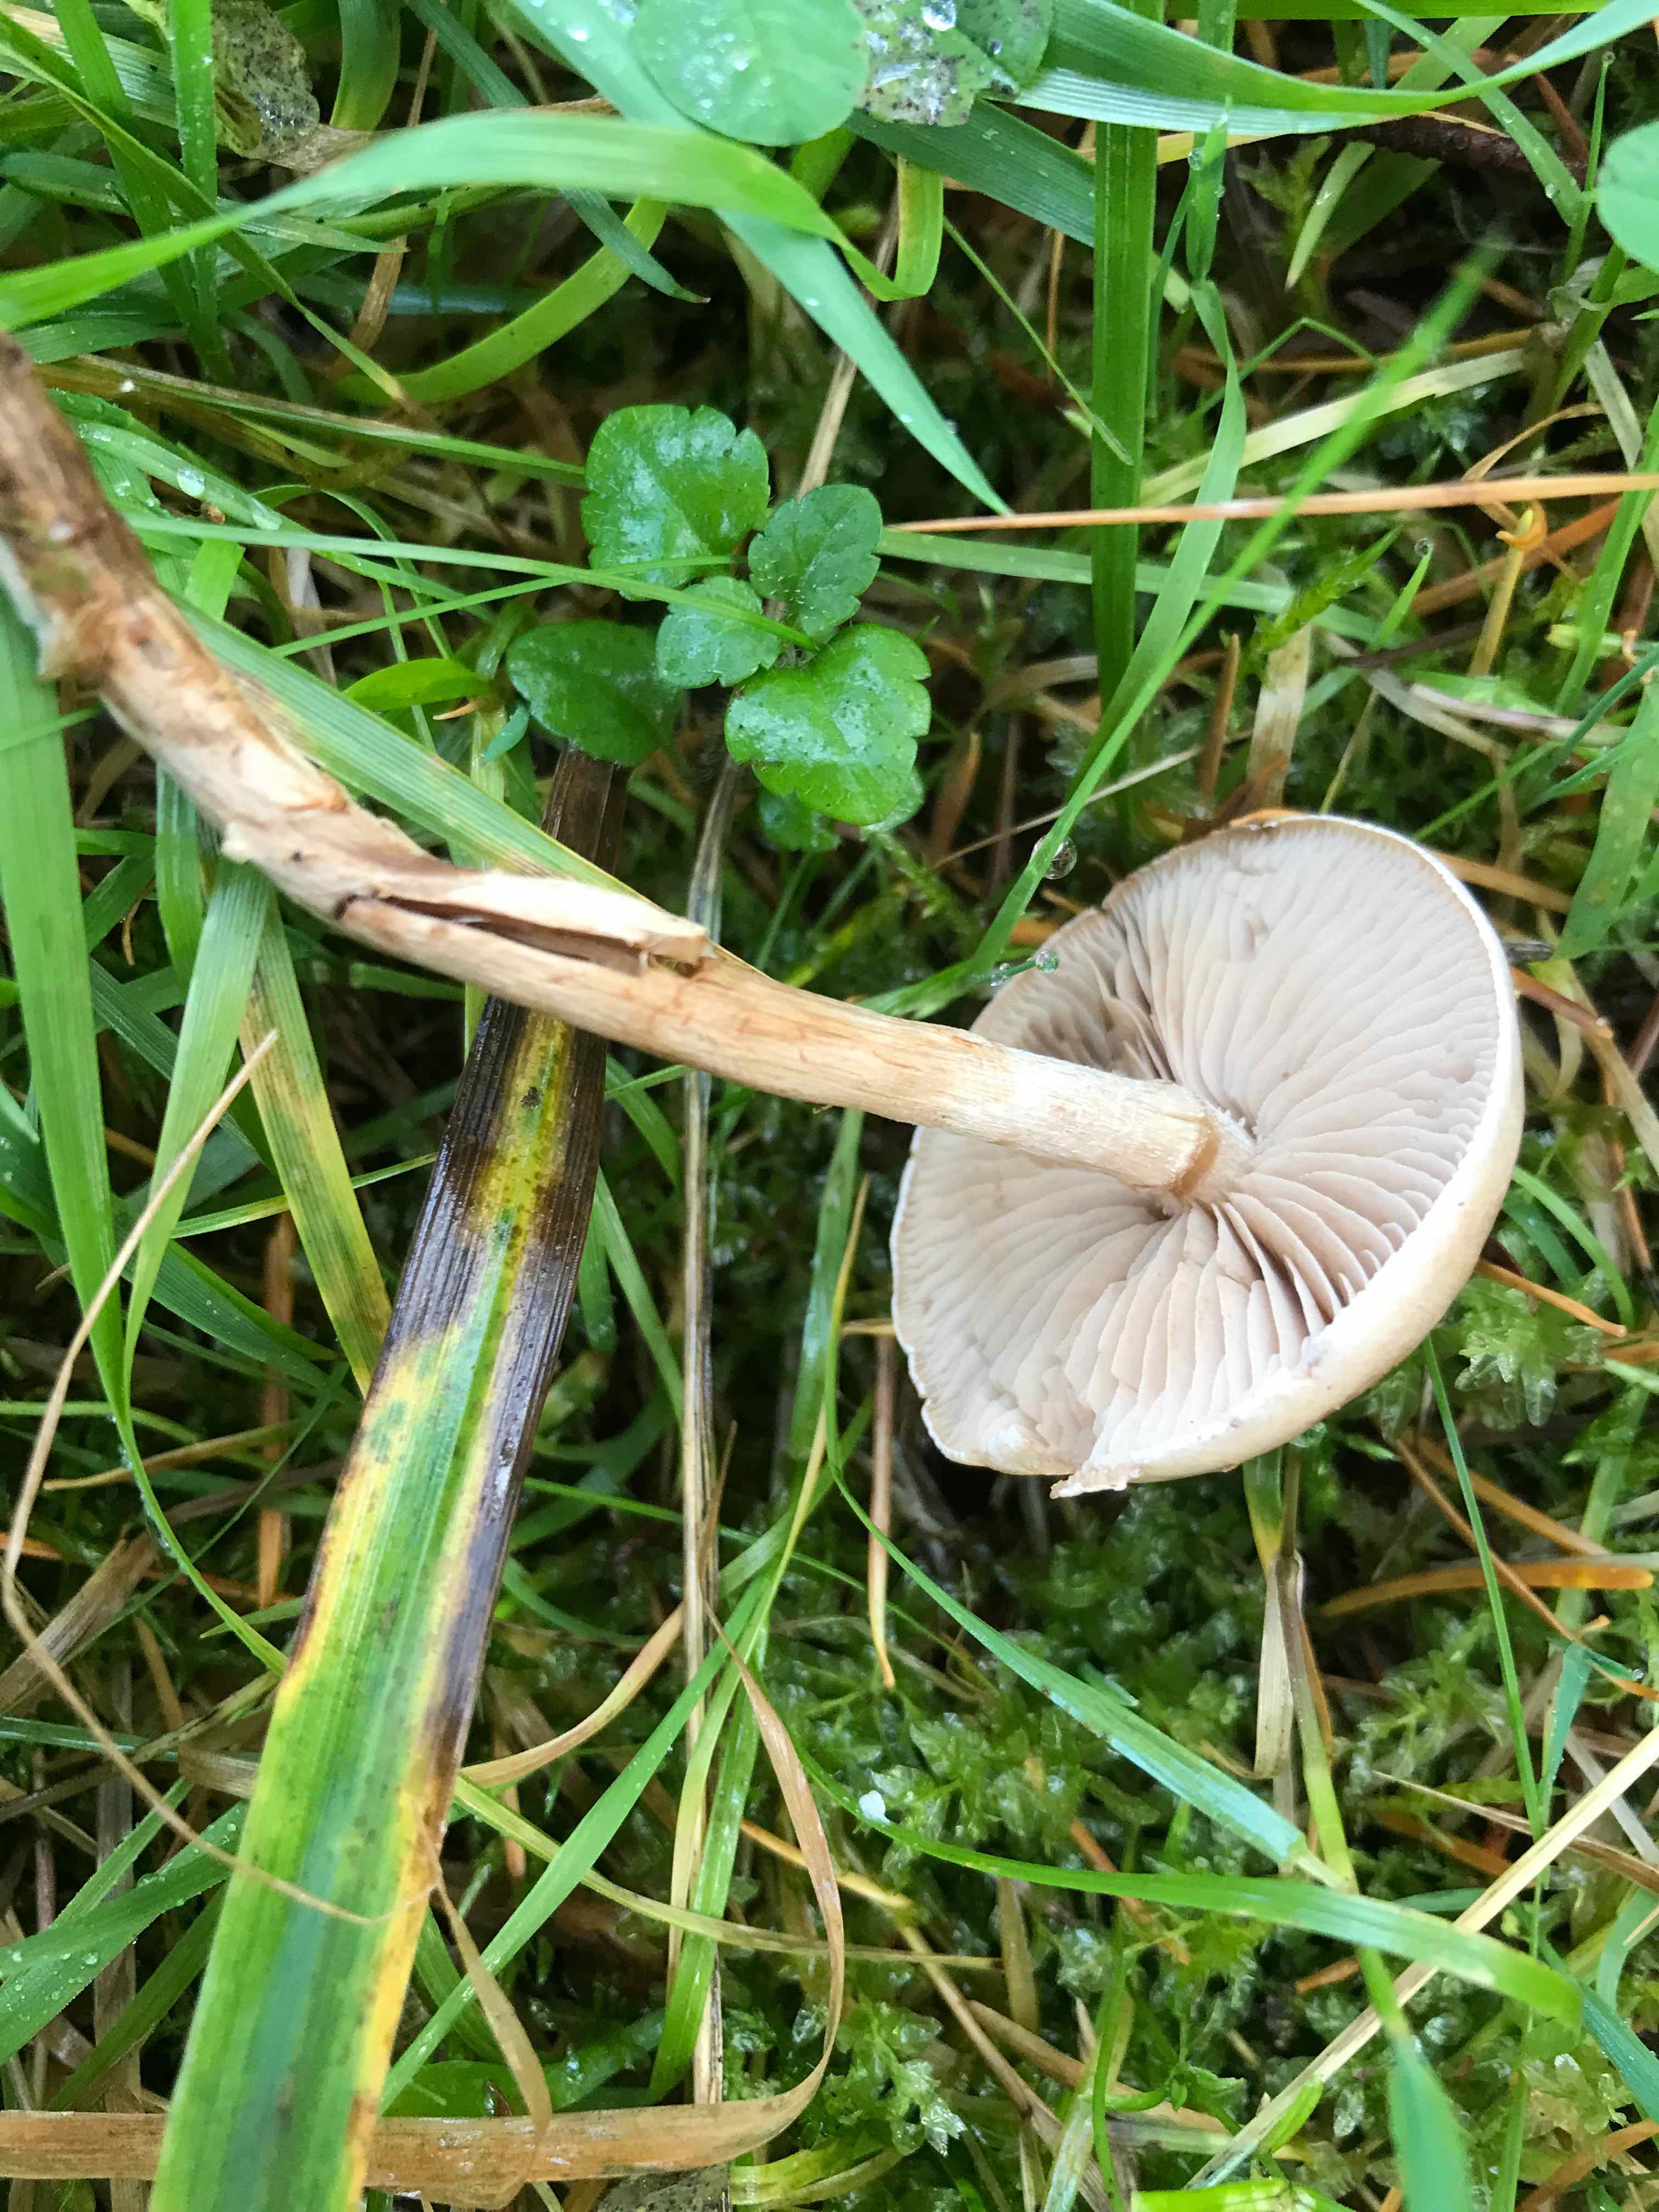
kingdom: Fungi
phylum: Basidiomycota
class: Agaricomycetes
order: Agaricales
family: Hymenogastraceae
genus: Hebeloma
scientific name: Hebeloma mesophaeum
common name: lerbrun tåreblad
